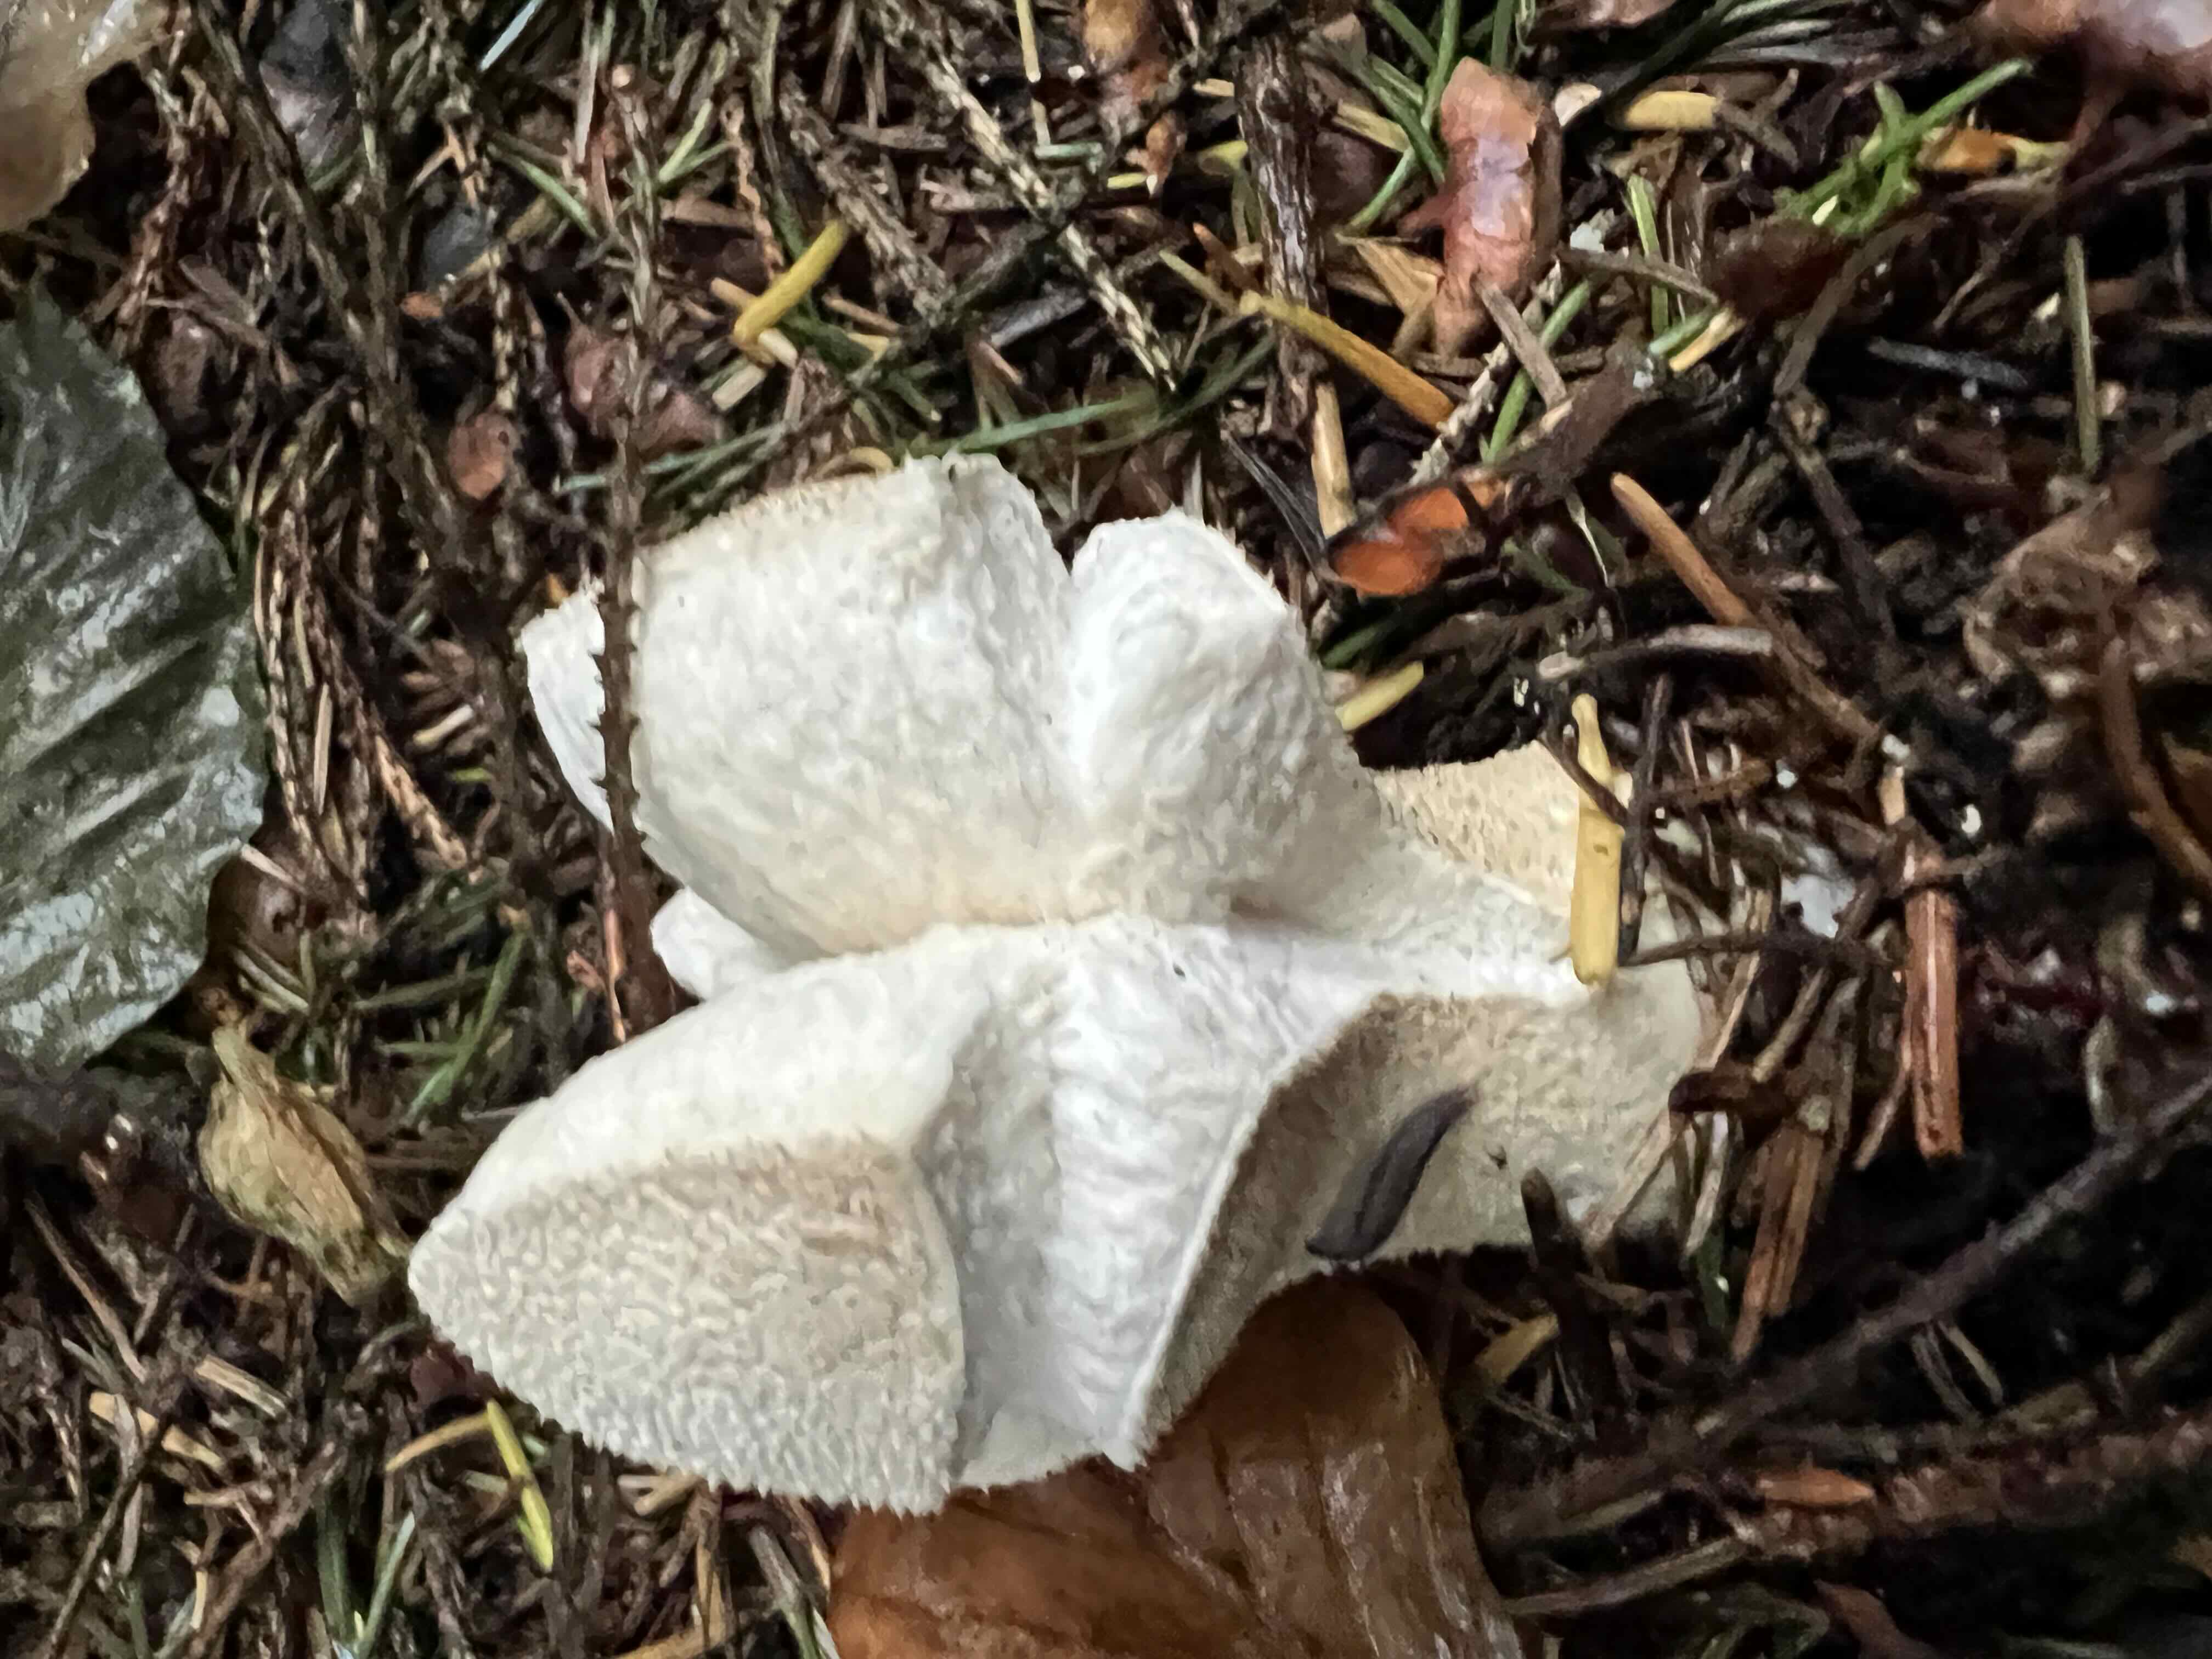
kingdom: Fungi
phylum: Basidiomycota
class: Agaricomycetes
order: Agaricales
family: Agaricaceae
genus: Lycoperdon
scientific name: Lycoperdon
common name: støvbold
